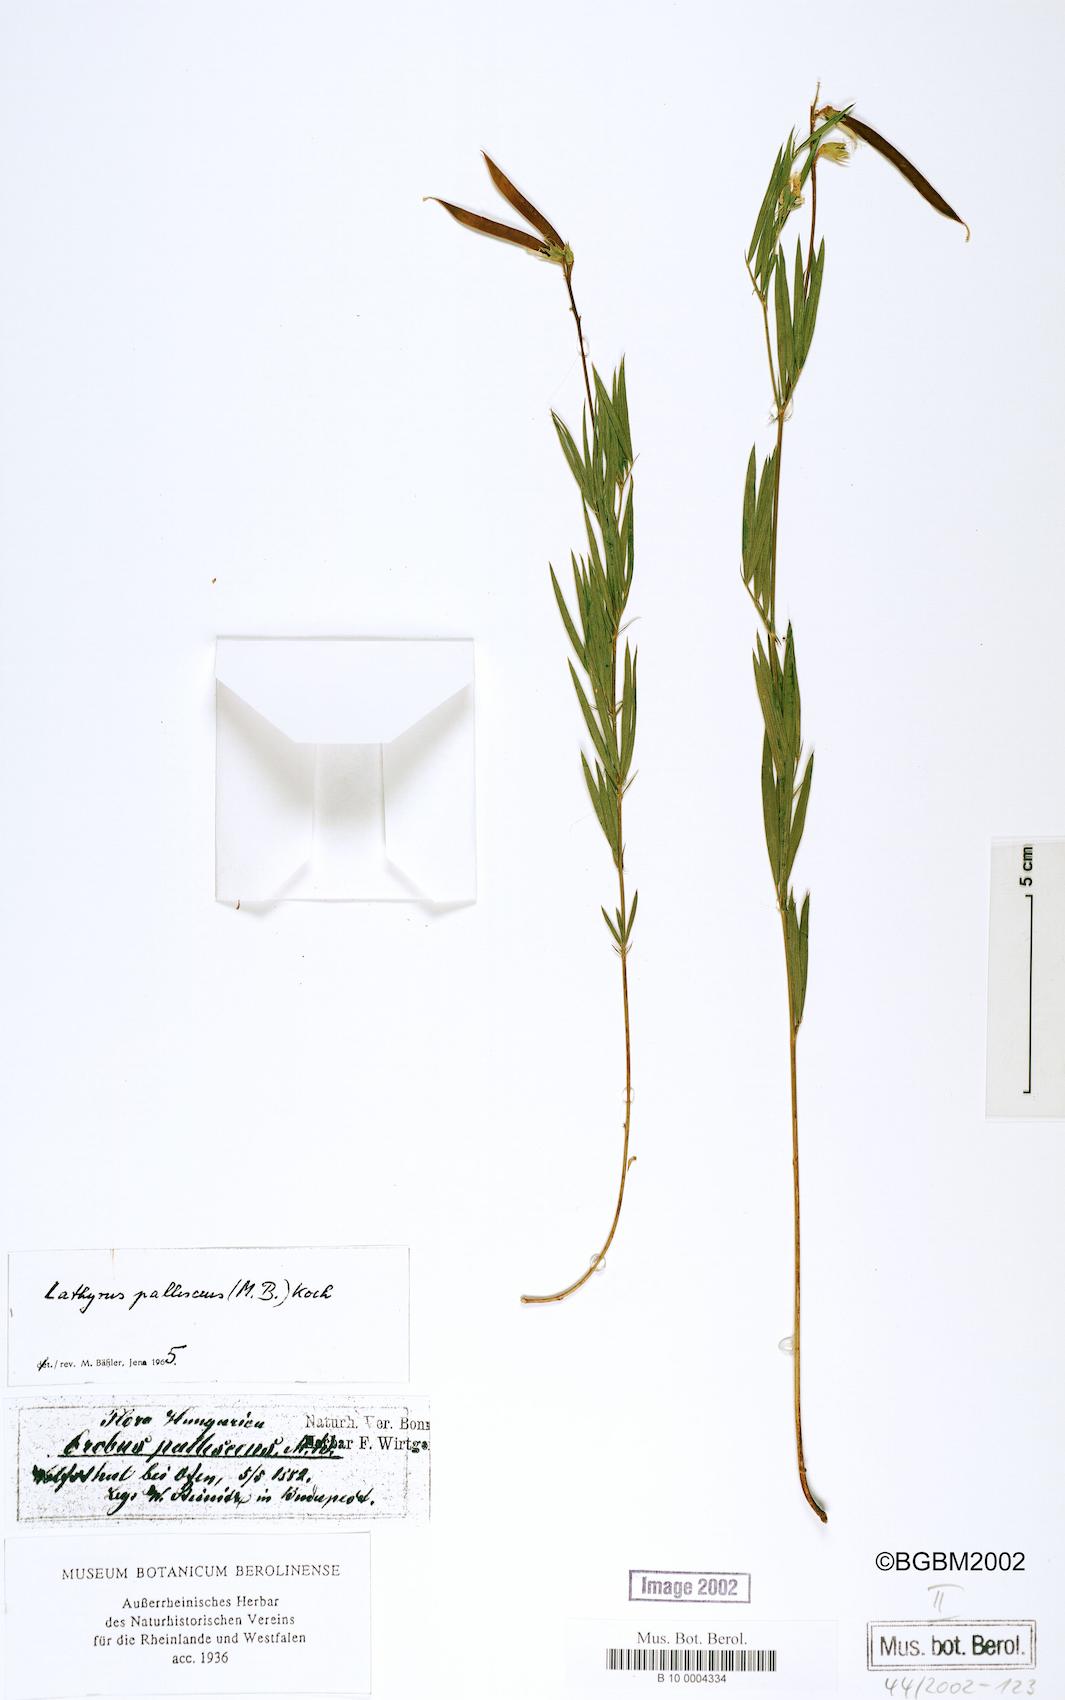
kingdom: Plantae
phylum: Tracheophyta
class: Magnoliopsida
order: Fabales
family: Fabaceae
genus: Lathyrus
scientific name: Lathyrus pallescens
